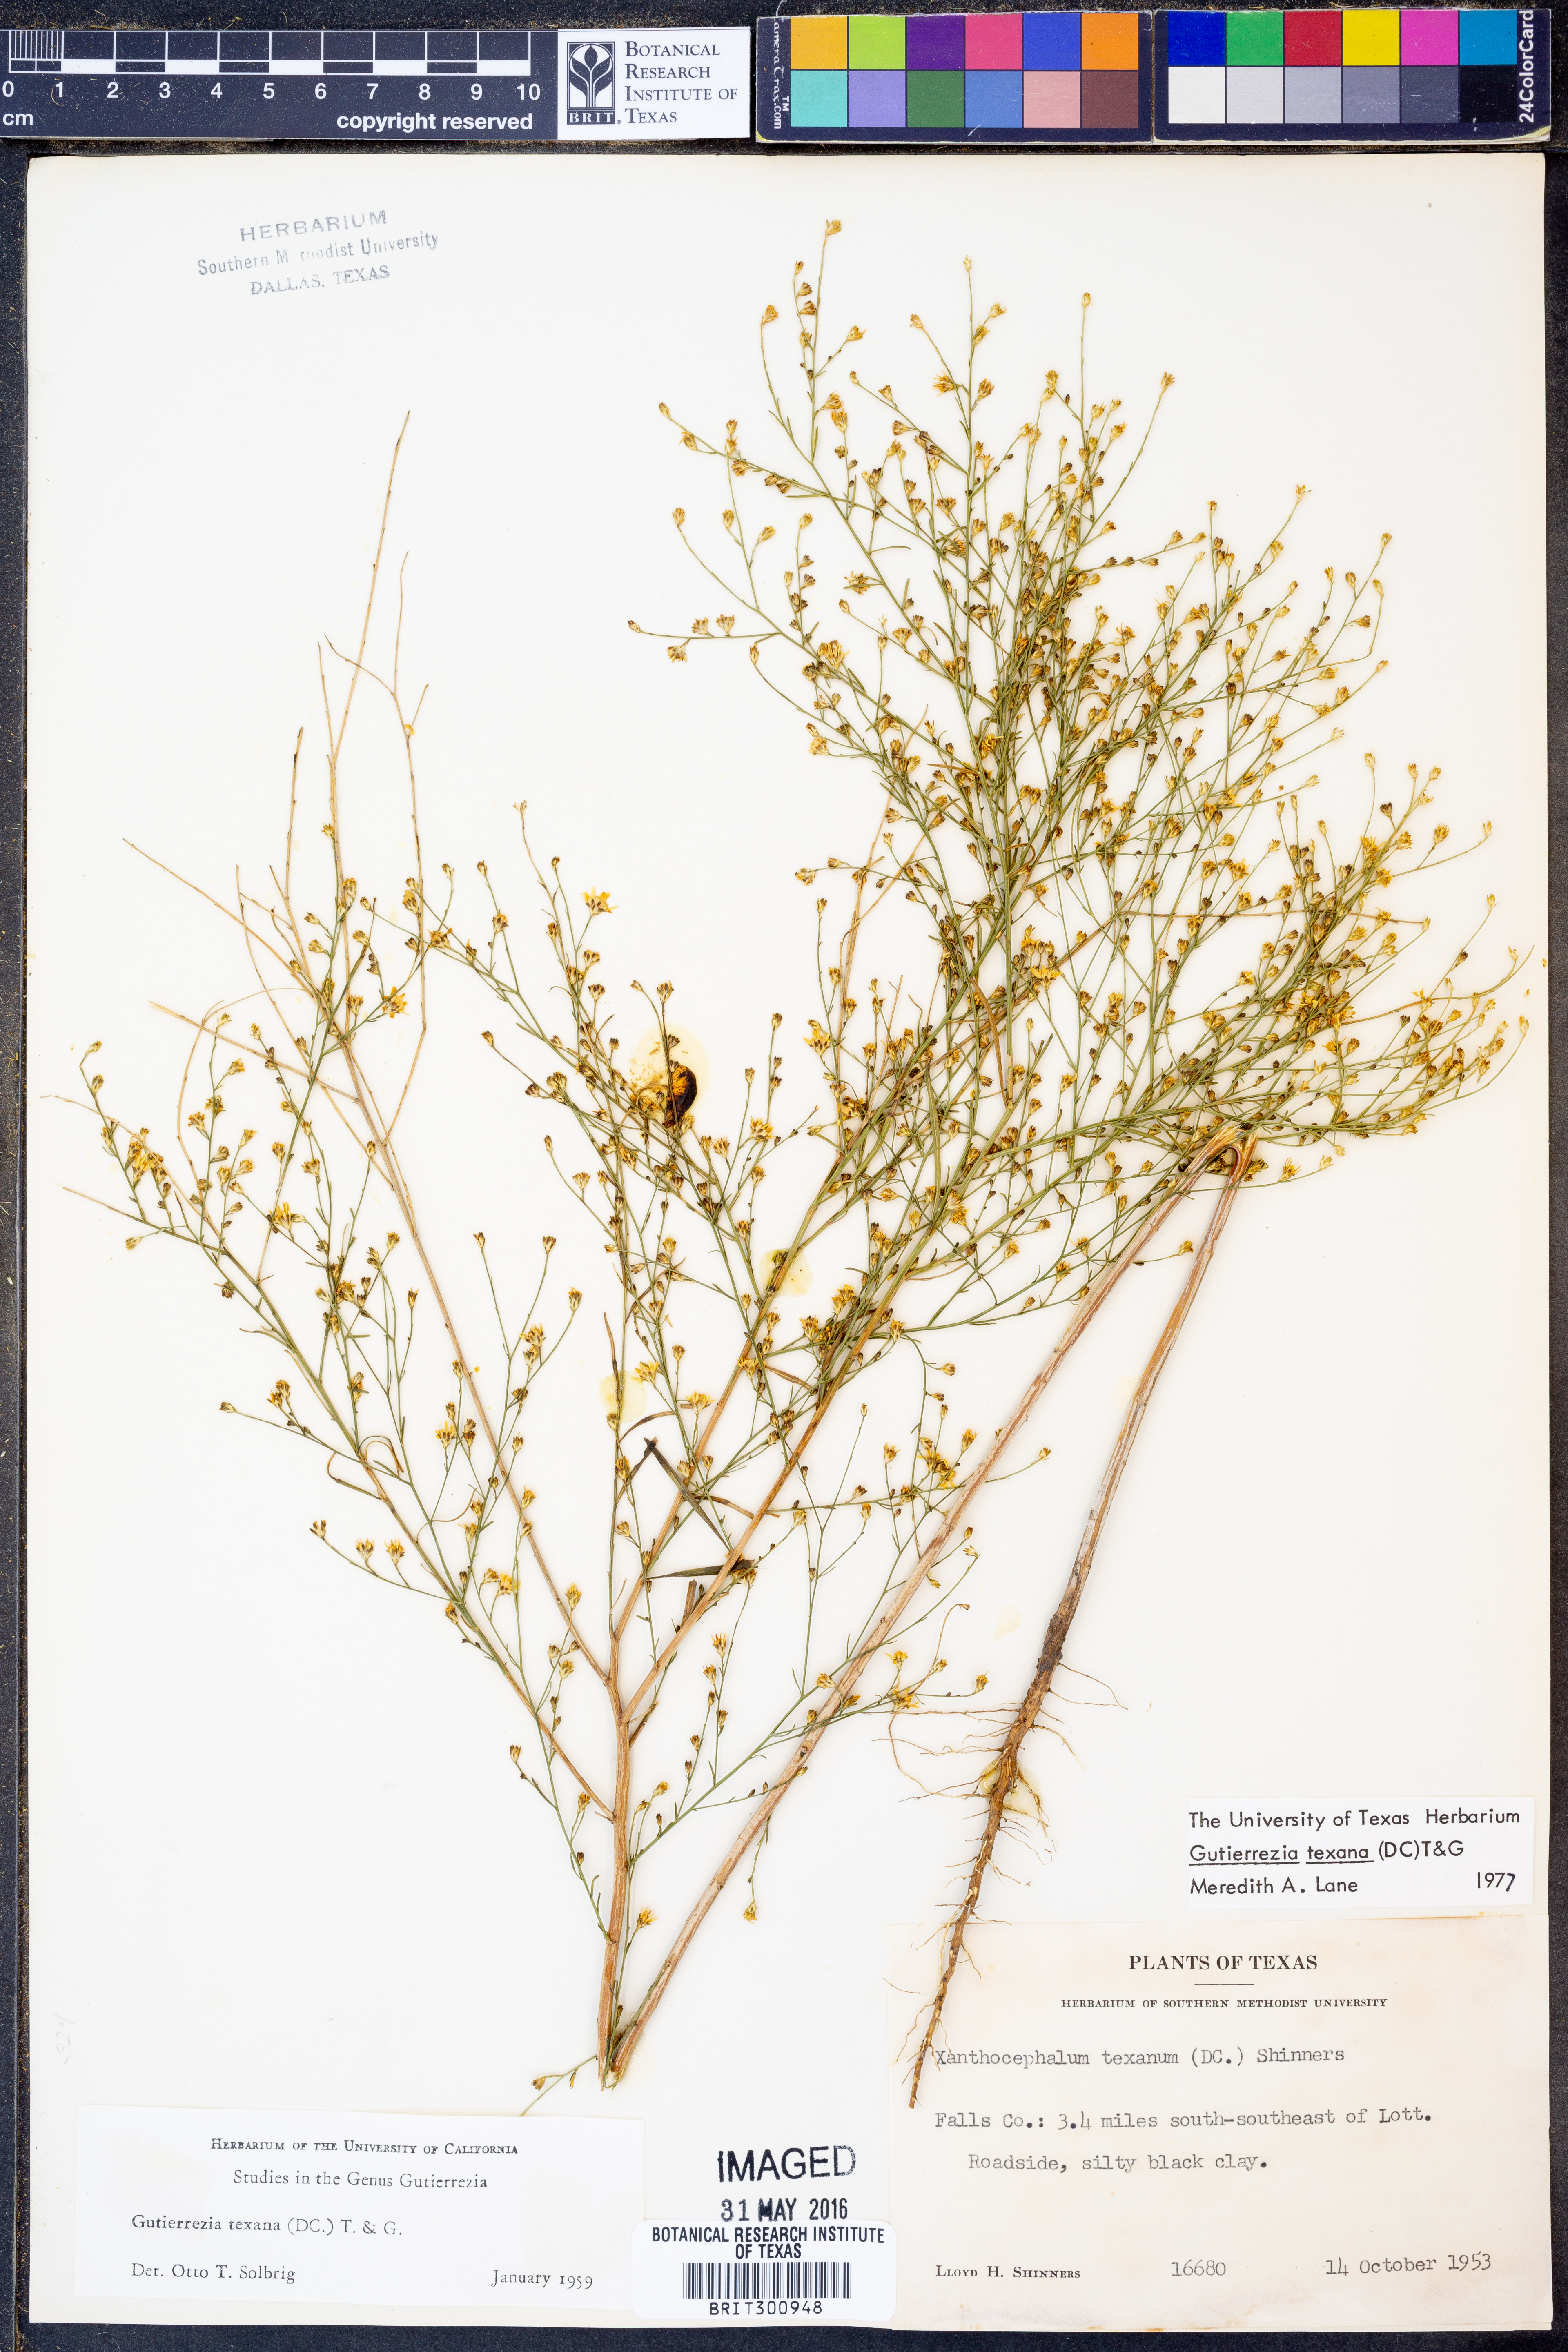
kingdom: Plantae
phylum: Tracheophyta
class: Magnoliopsida
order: Asterales
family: Asteraceae
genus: Gutierrezia
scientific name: Gutierrezia texana
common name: Texas snakeweed
